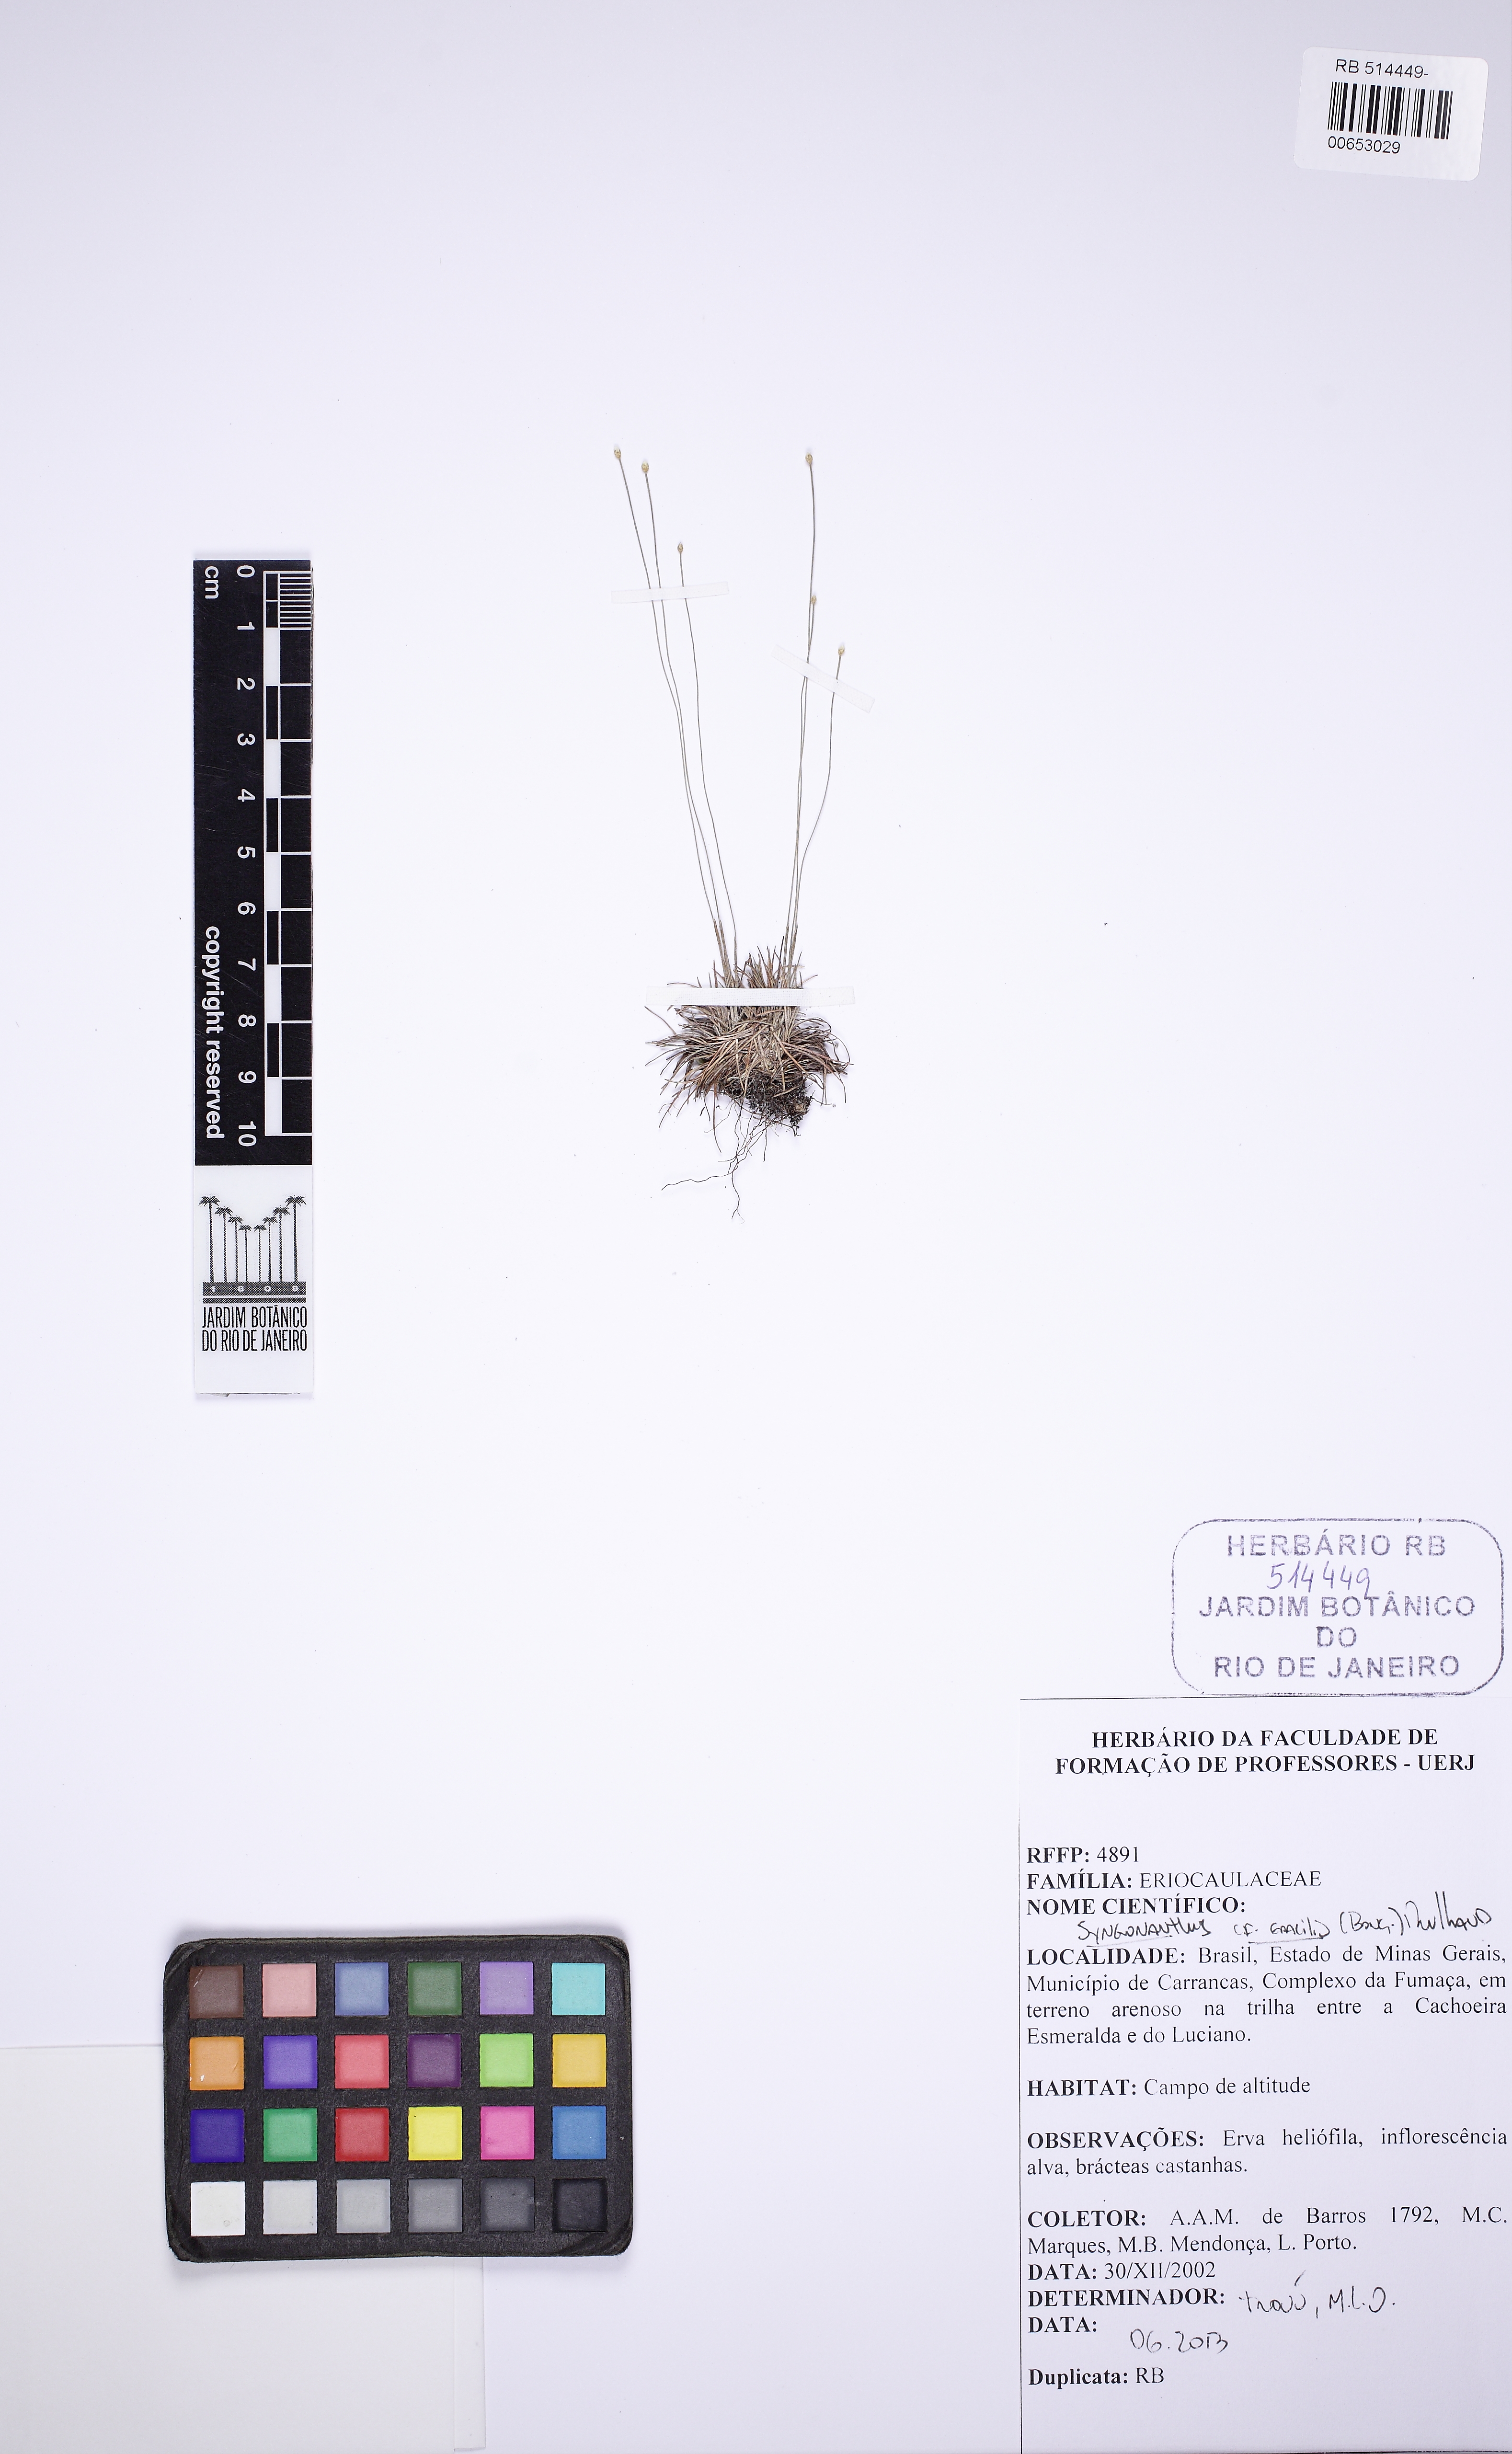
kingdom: Plantae
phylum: Tracheophyta
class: Liliopsida
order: Poales
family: Eriocaulaceae
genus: Syngonanthus
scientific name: Syngonanthus gracilis
